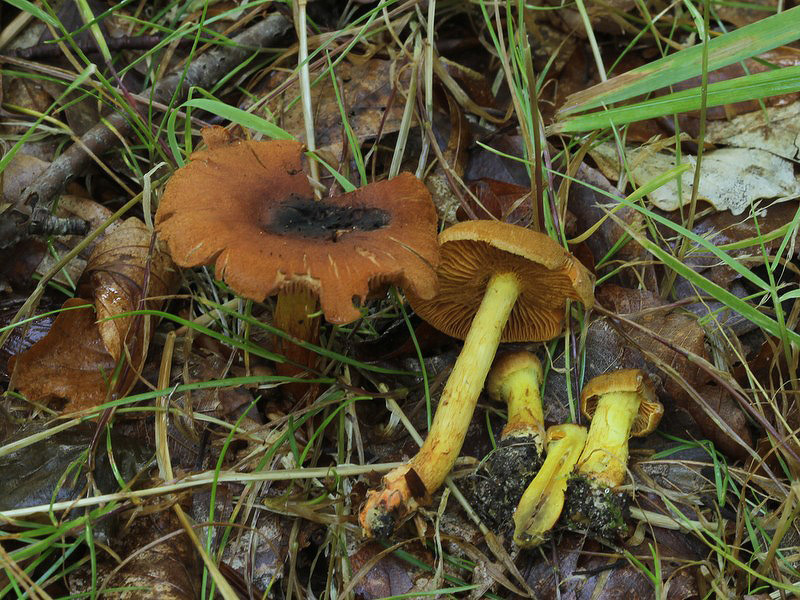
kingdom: Fungi
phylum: Basidiomycota
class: Agaricomycetes
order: Agaricales
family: Cortinariaceae
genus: Cortinarius
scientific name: Cortinarius malicorius
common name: grønkødet slørhat
